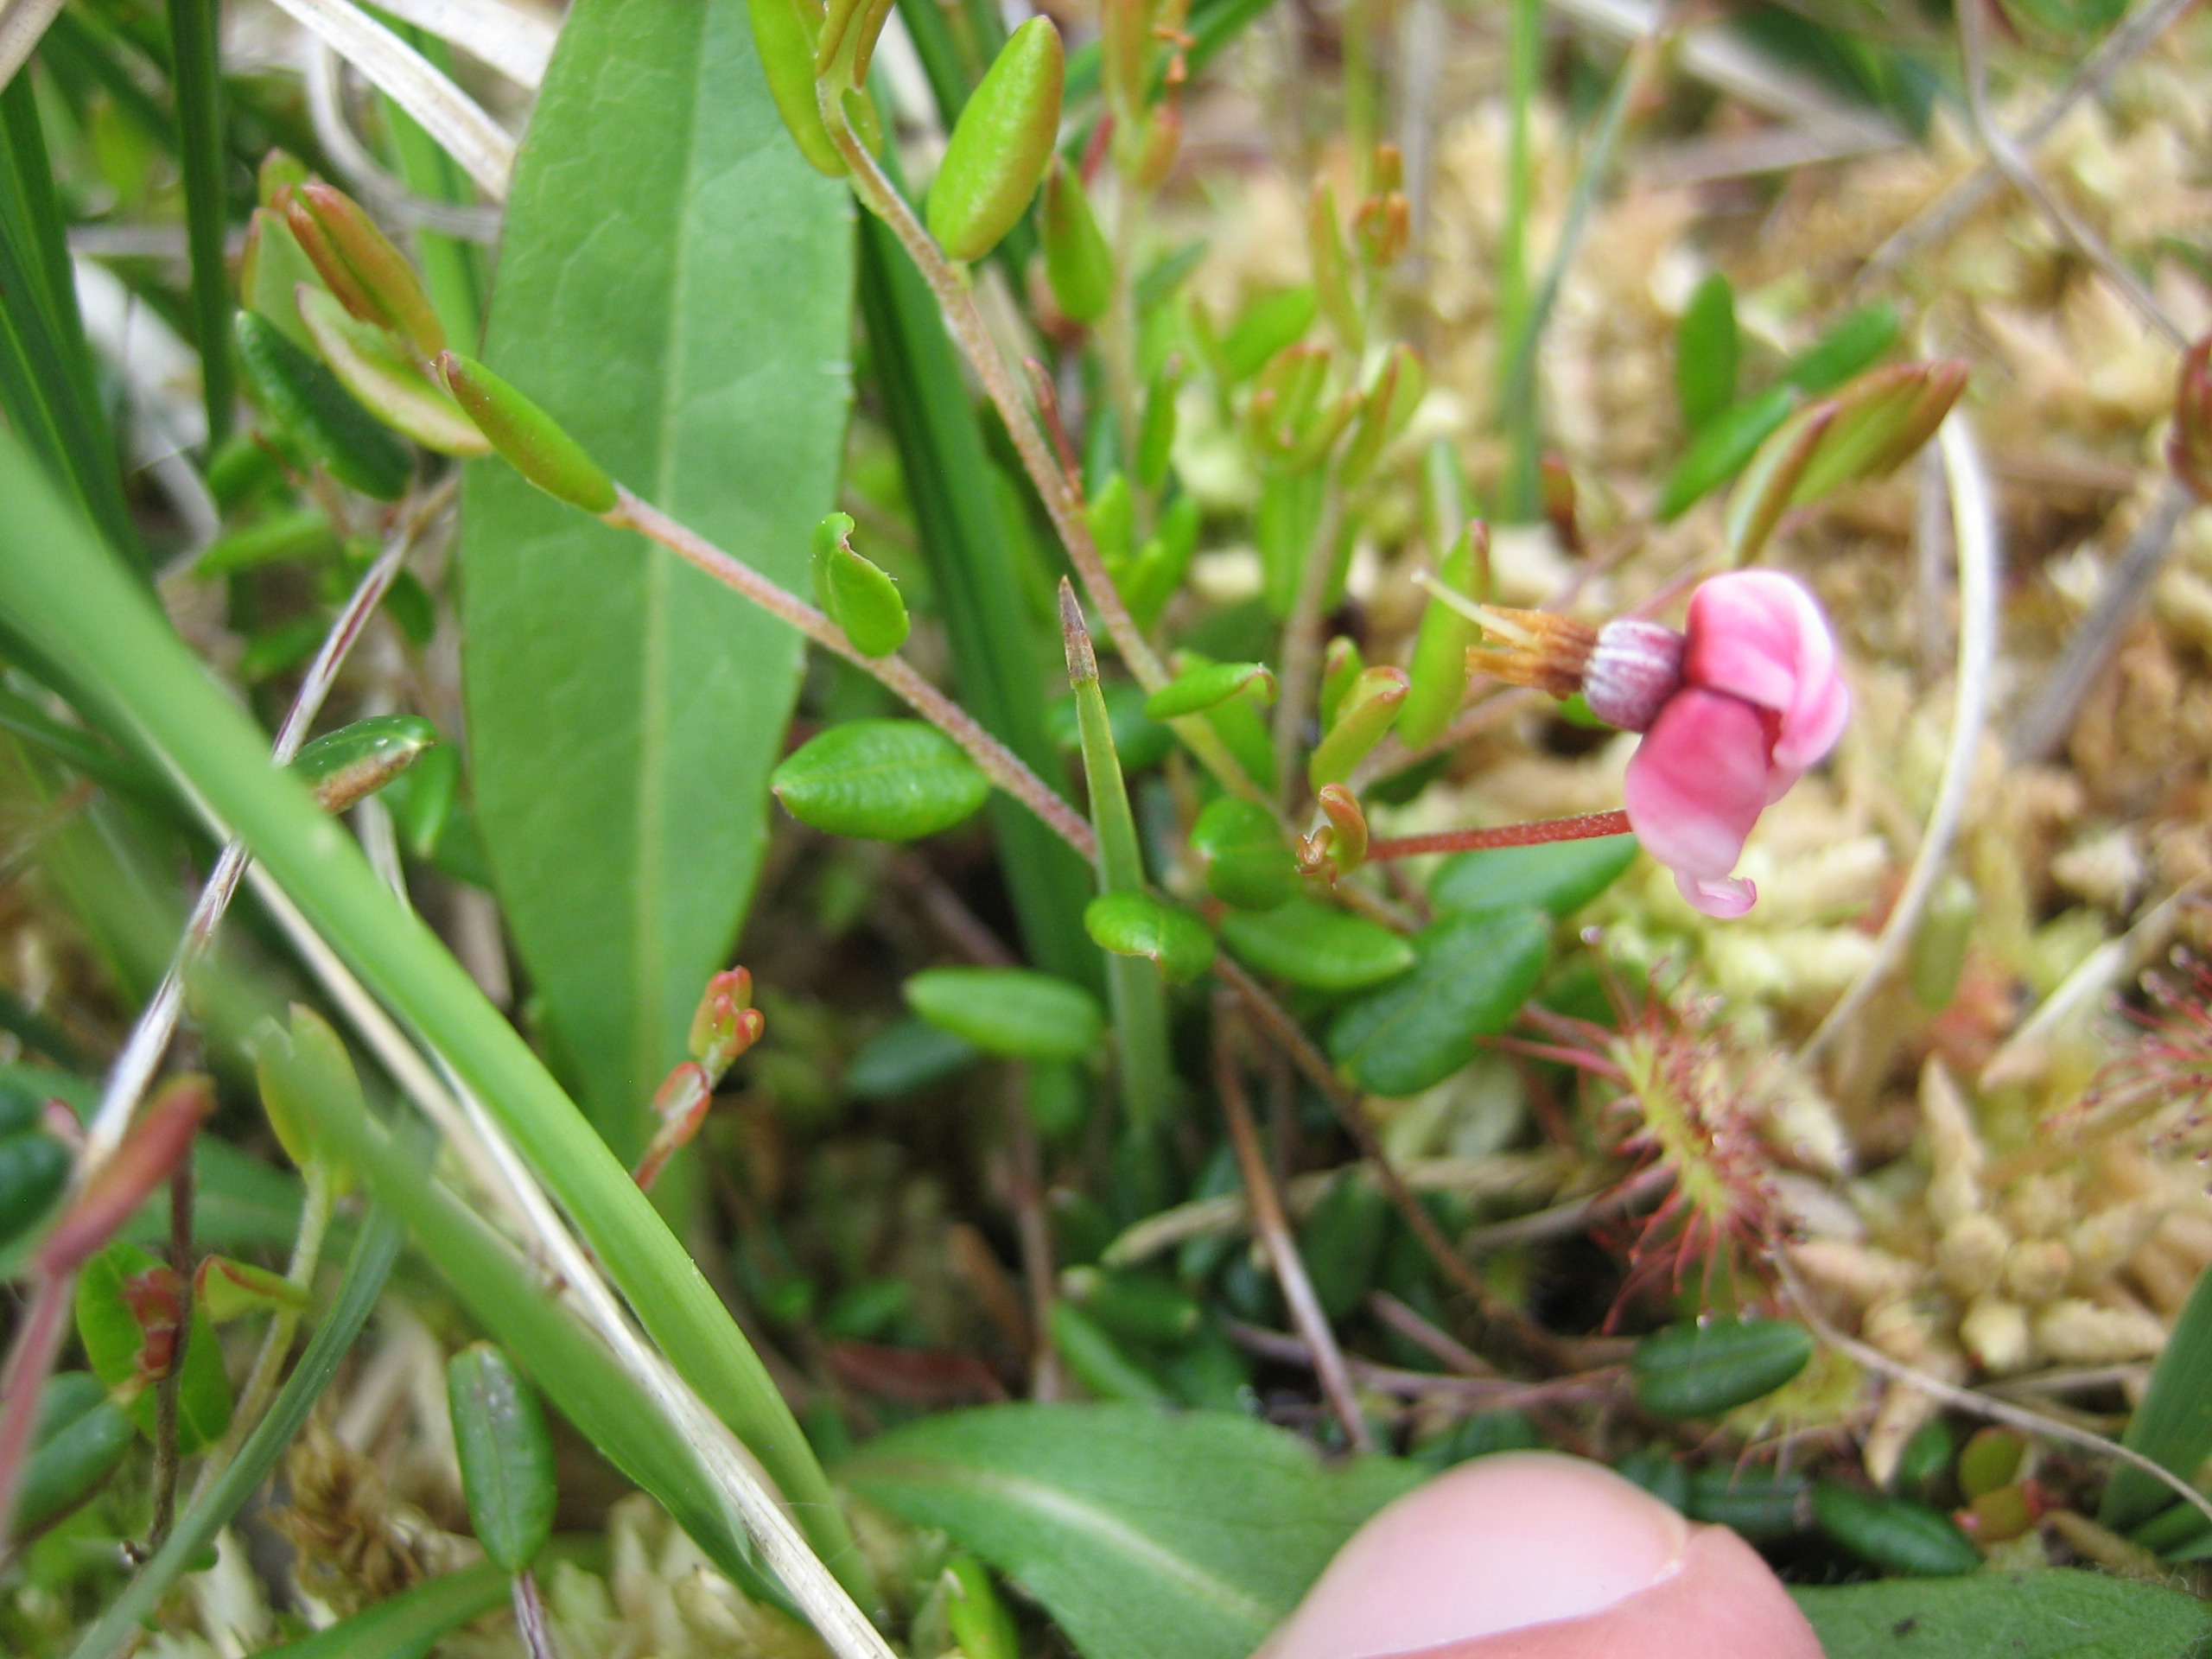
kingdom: Plantae
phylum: Tracheophyta
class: Magnoliopsida
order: Ericales
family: Ericaceae
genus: Vaccinium
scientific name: Vaccinium oxycoccos
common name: Tranebær
